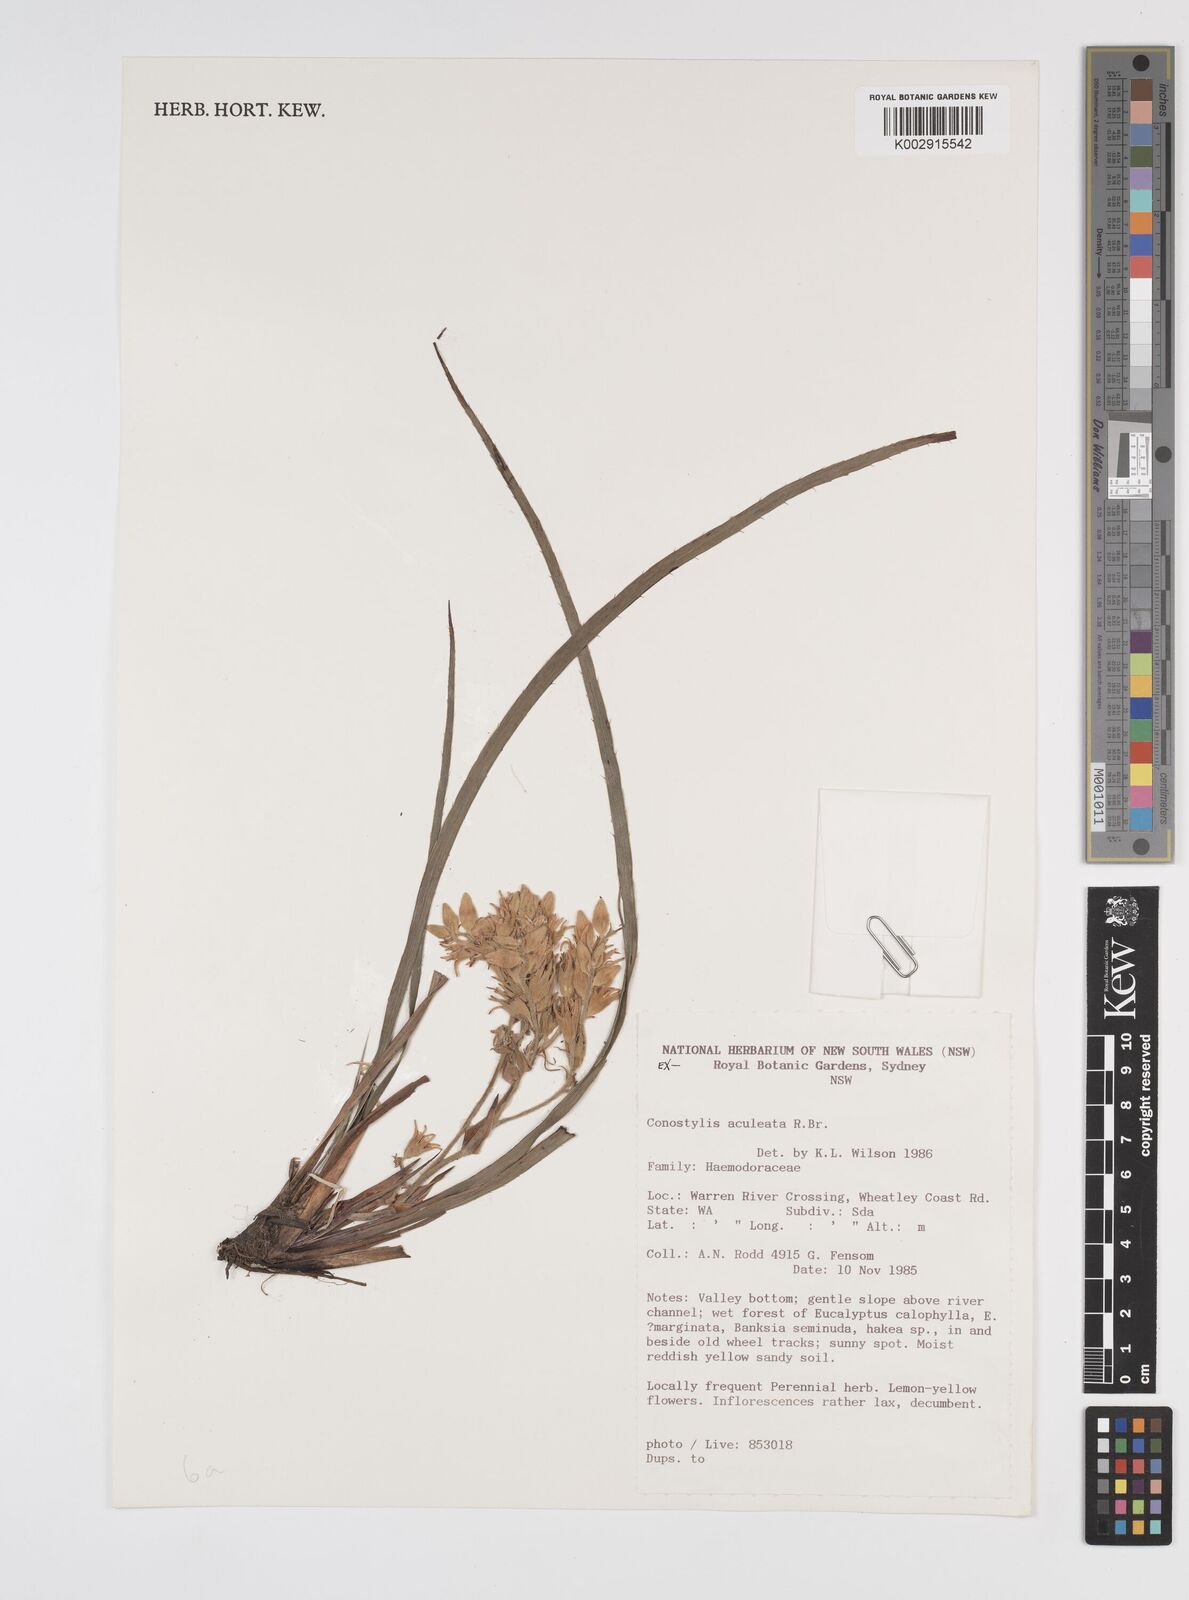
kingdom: Plantae
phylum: Tracheophyta
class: Liliopsida
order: Commelinales
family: Haemodoraceae
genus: Conostylis
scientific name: Conostylis aculeata
